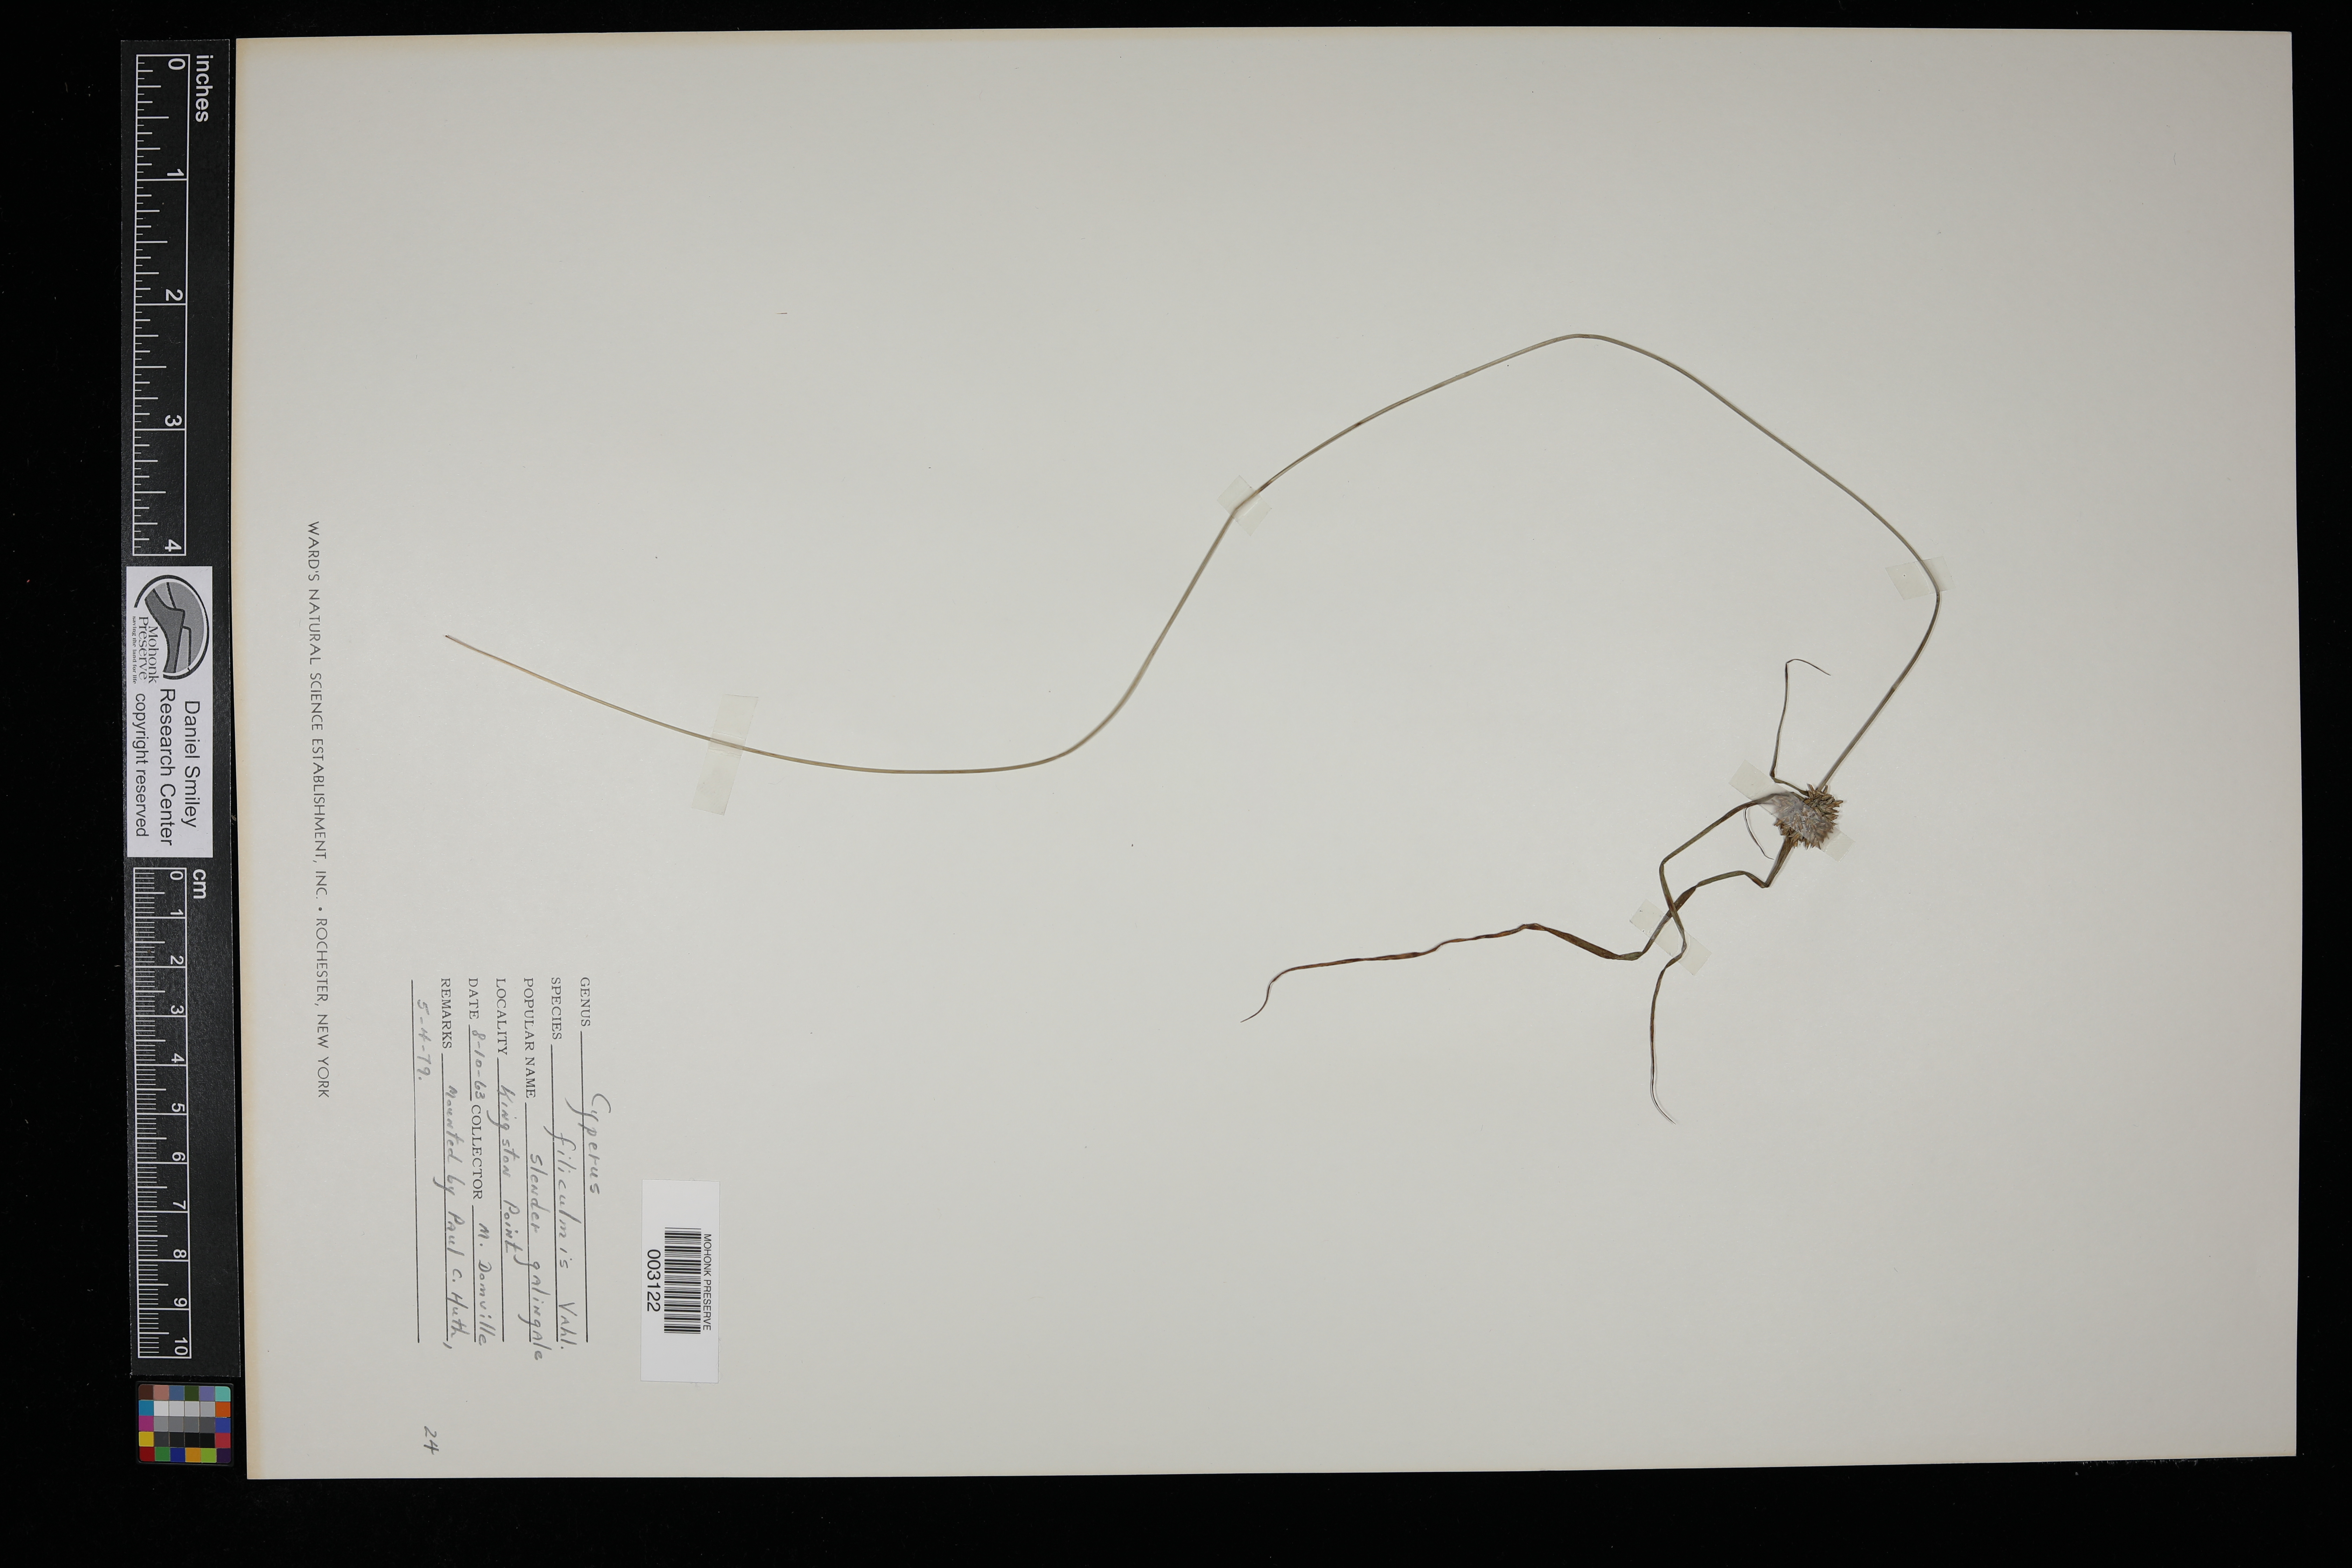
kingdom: Plantae
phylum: Tracheophyta
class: Liliopsida
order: Poales
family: Cyperaceae
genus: Cyperus
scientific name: Cyperus filiculmis
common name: Slender sand sedge
